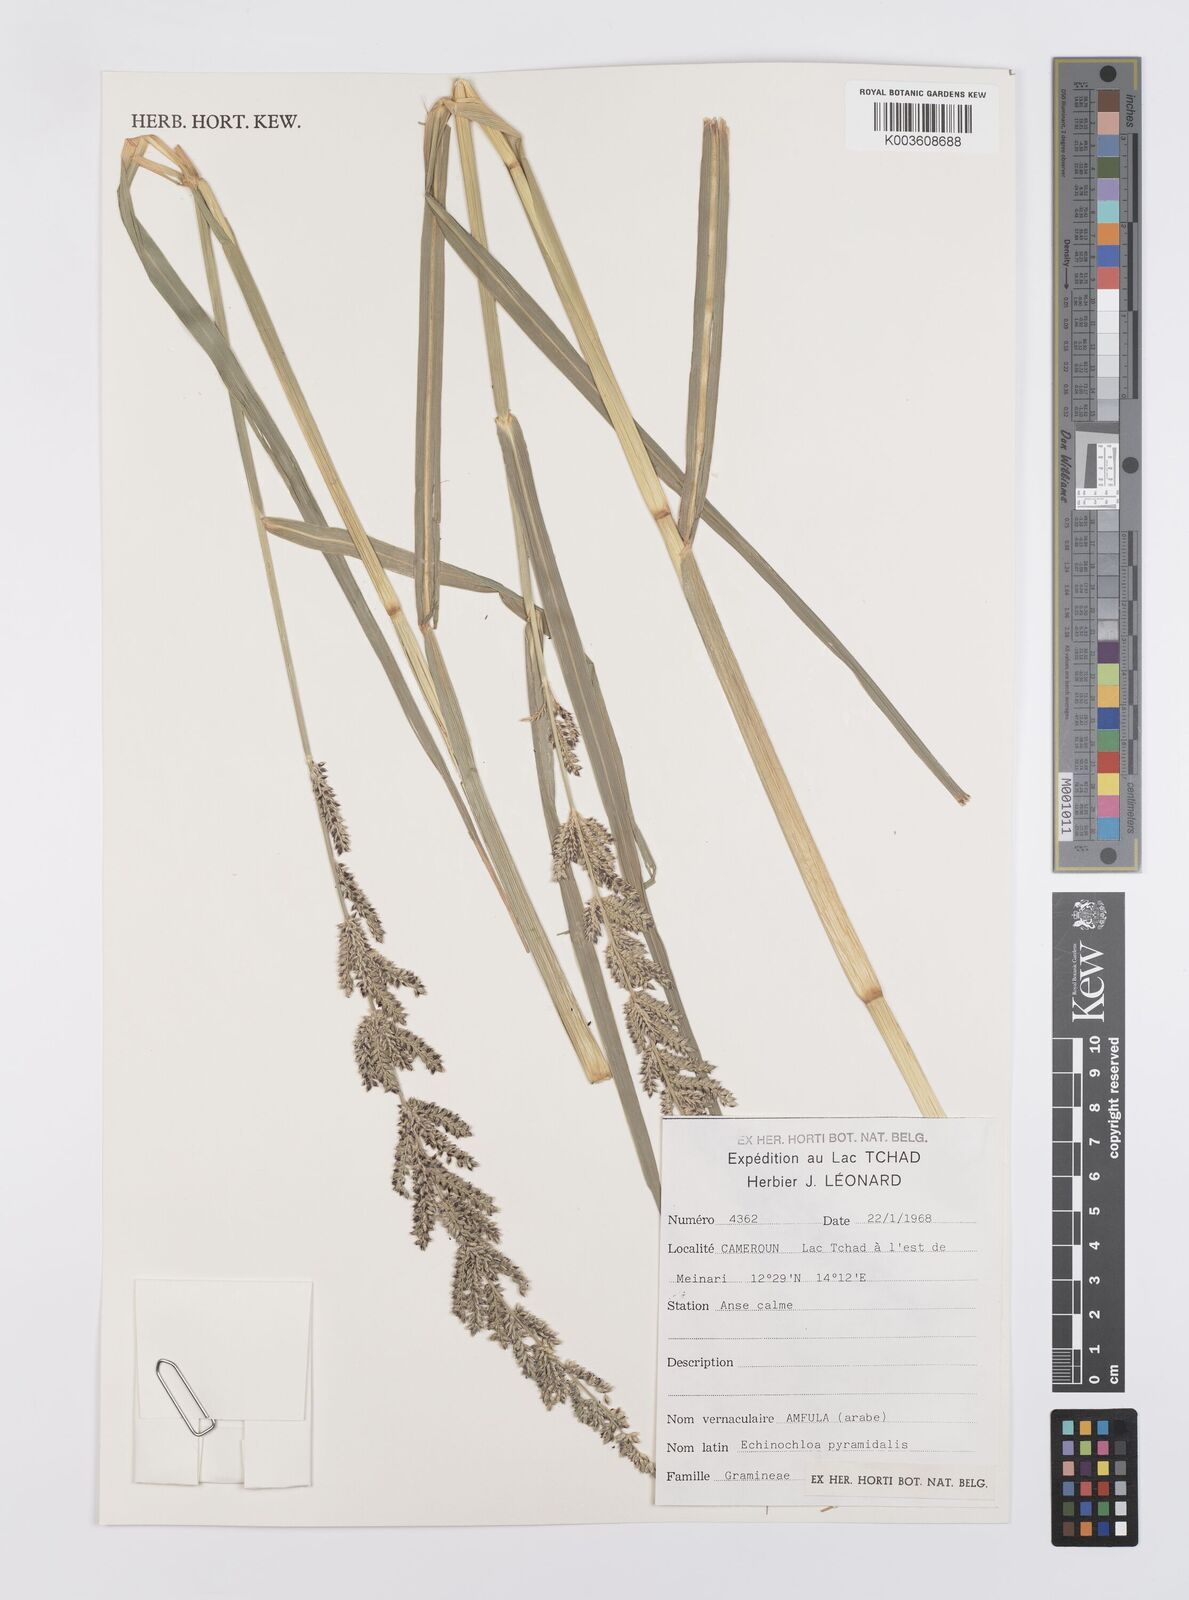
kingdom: Plantae
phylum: Tracheophyta
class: Liliopsida
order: Poales
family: Poaceae
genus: Echinochloa
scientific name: Echinochloa pyramidalis
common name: Antelope grass
